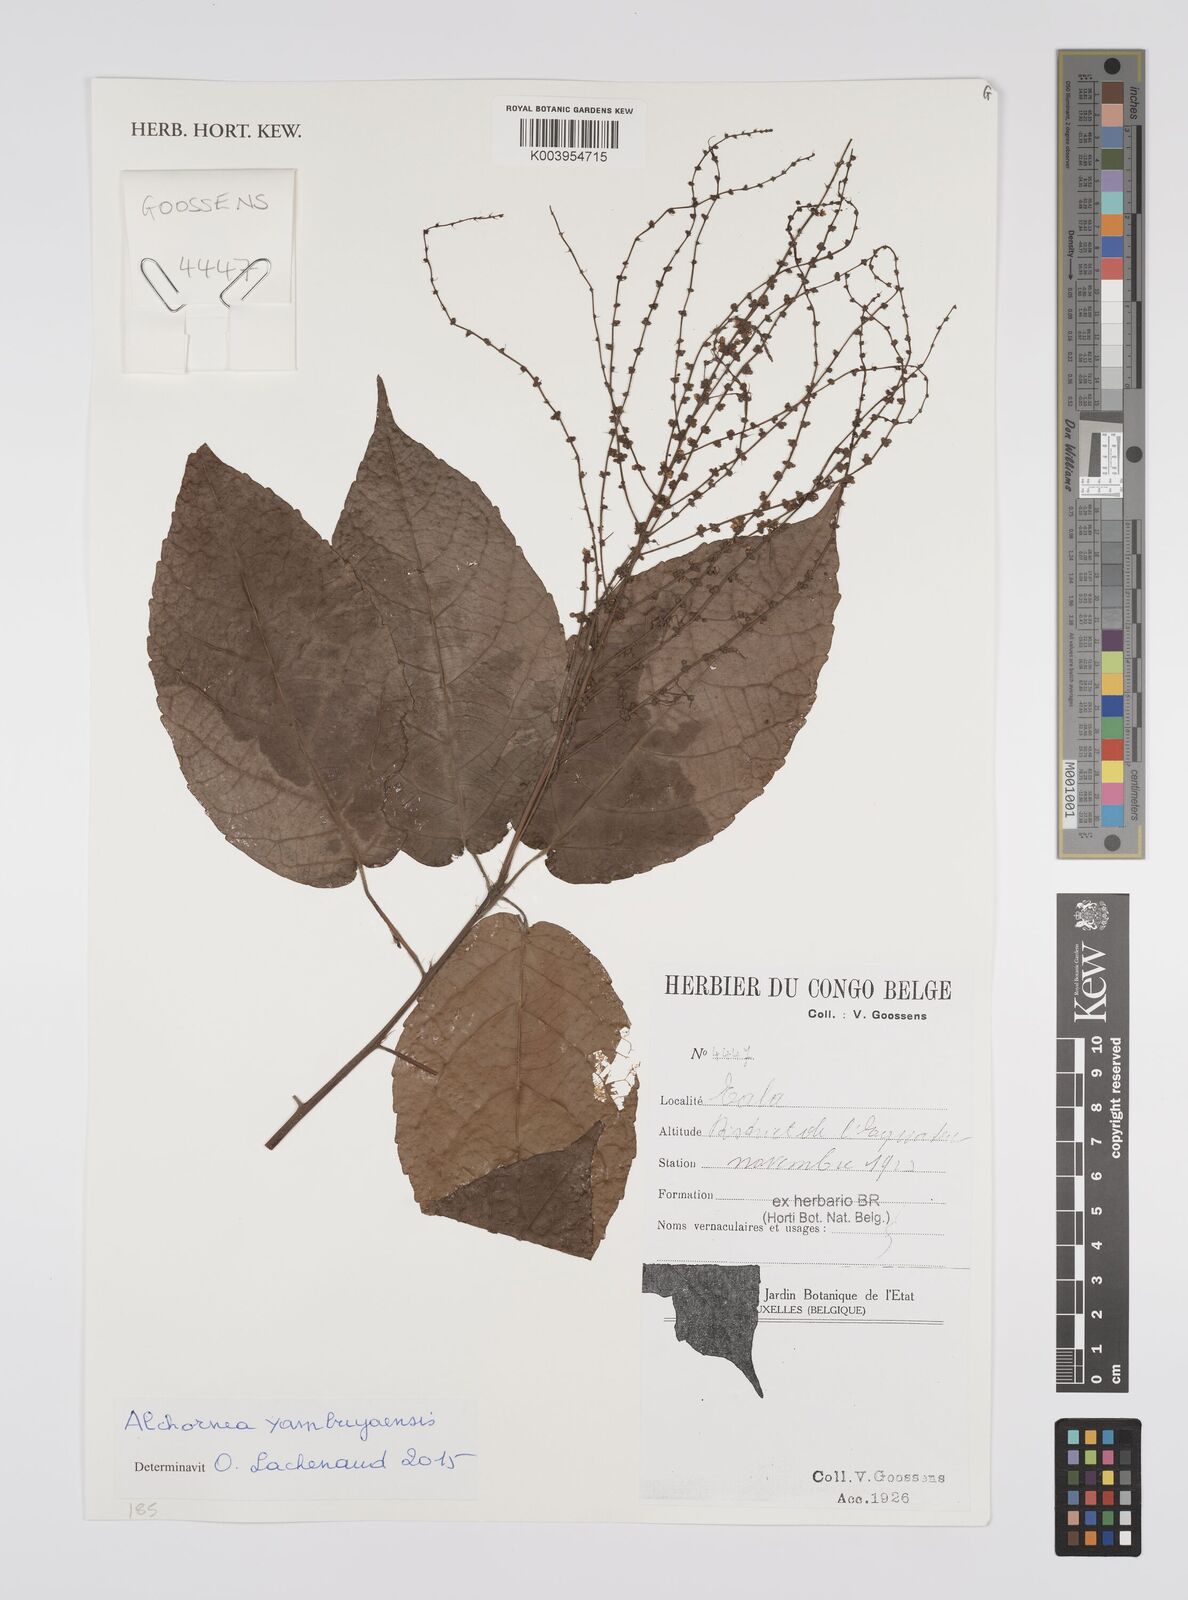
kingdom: Plantae
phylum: Tracheophyta
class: Magnoliopsida
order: Malpighiales
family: Euphorbiaceae
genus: Alchornea
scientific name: Alchornea yambuyaensis
